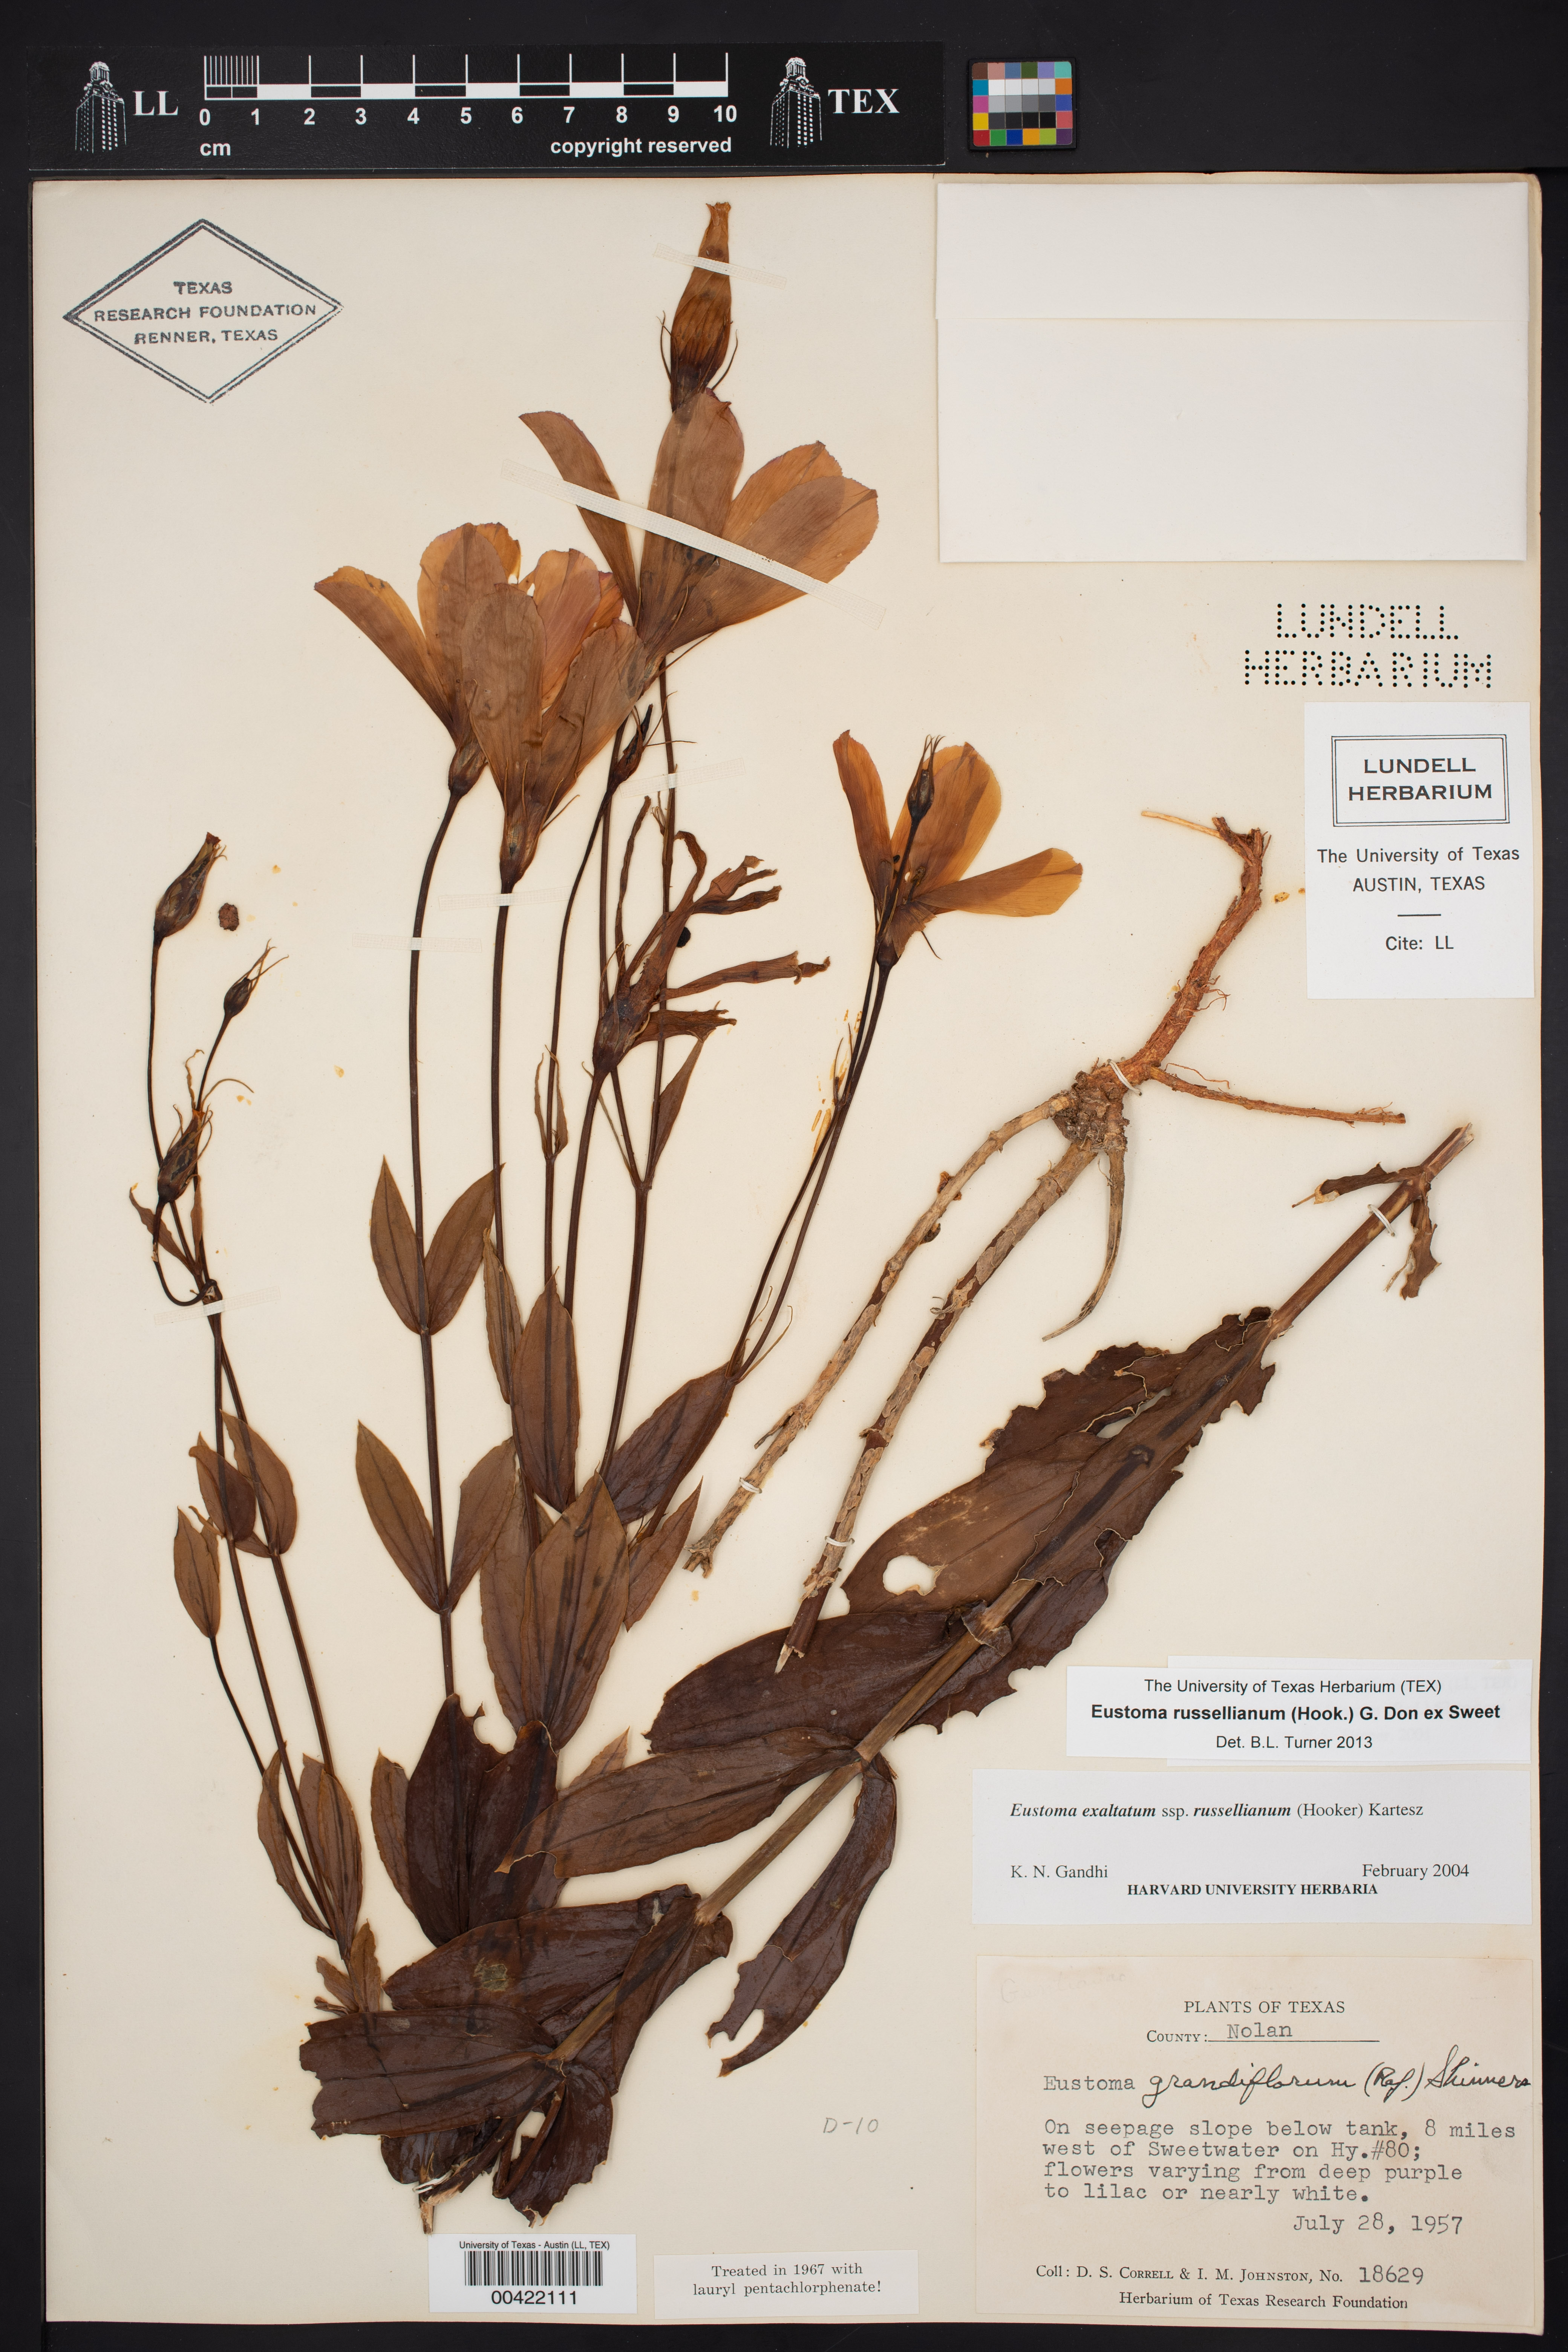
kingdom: Plantae
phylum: Tracheophyta
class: Magnoliopsida
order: Gentianales
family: Gentianaceae
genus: Eustoma
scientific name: Eustoma russellianum
